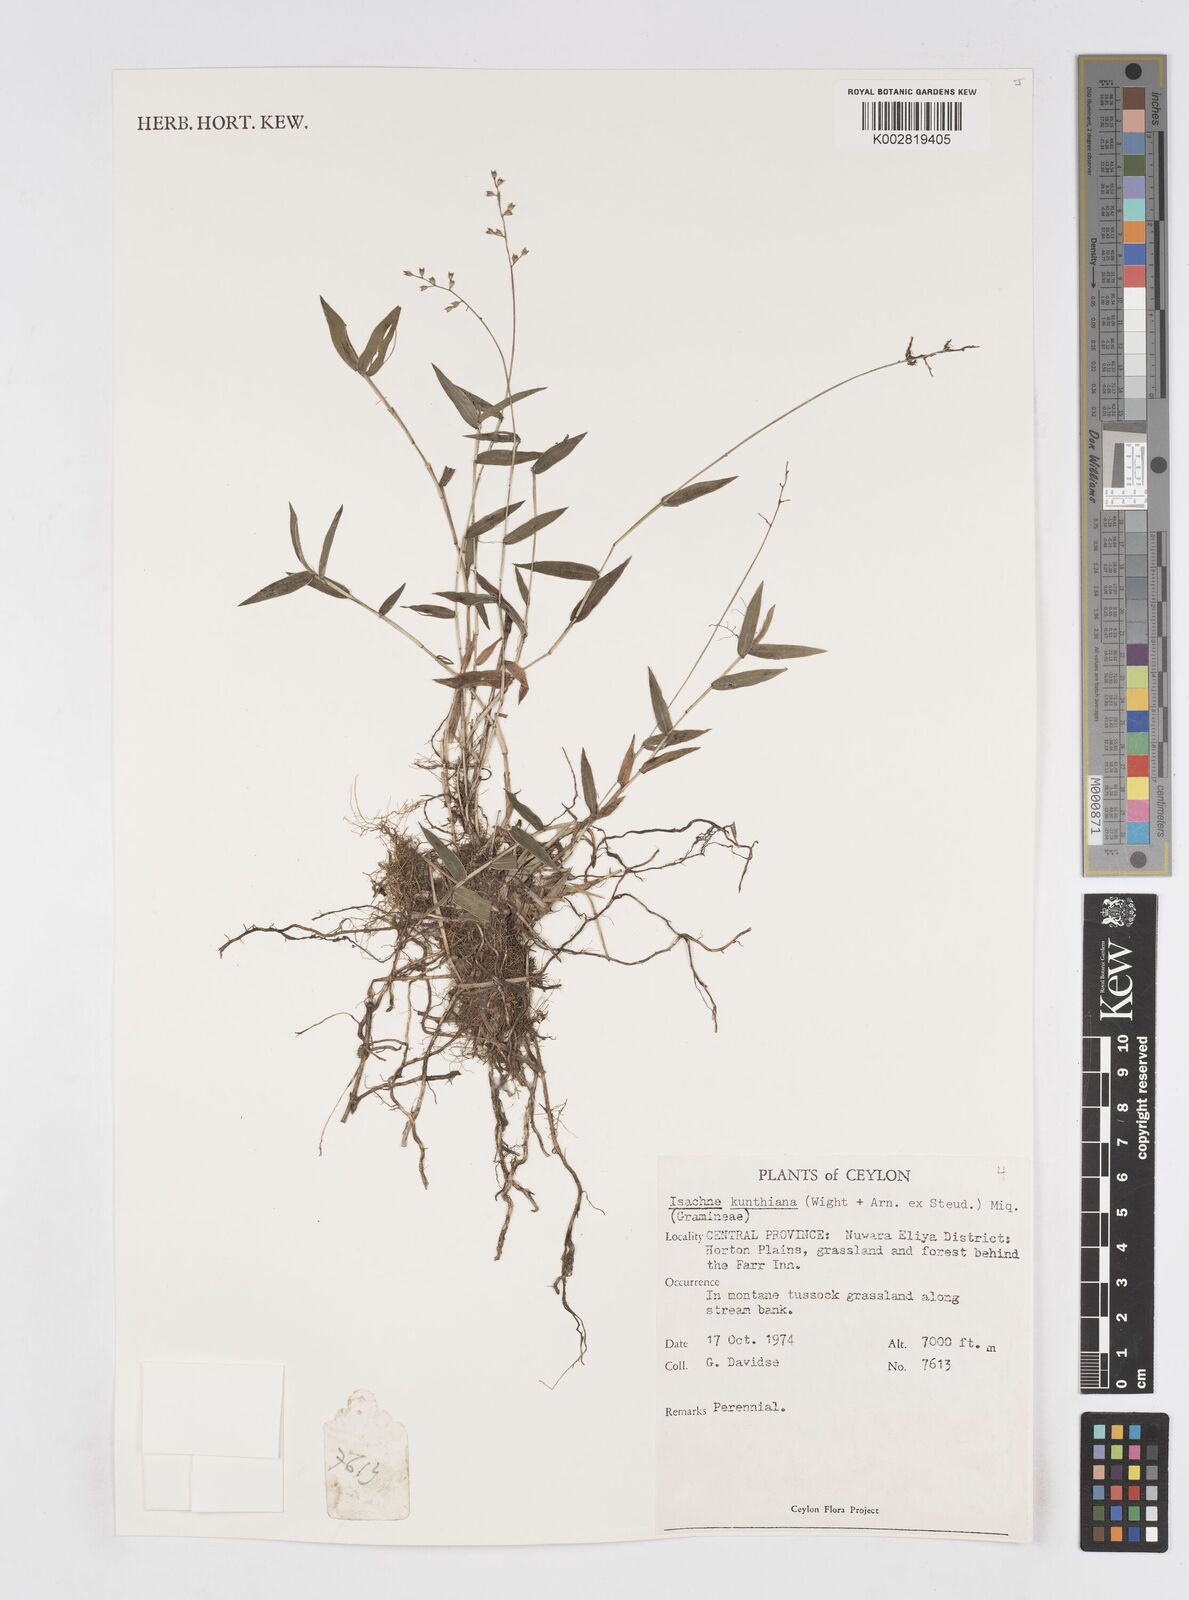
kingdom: Plantae
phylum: Tracheophyta
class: Liliopsida
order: Poales
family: Poaceae
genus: Isachne
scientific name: Isachne kunthiana
